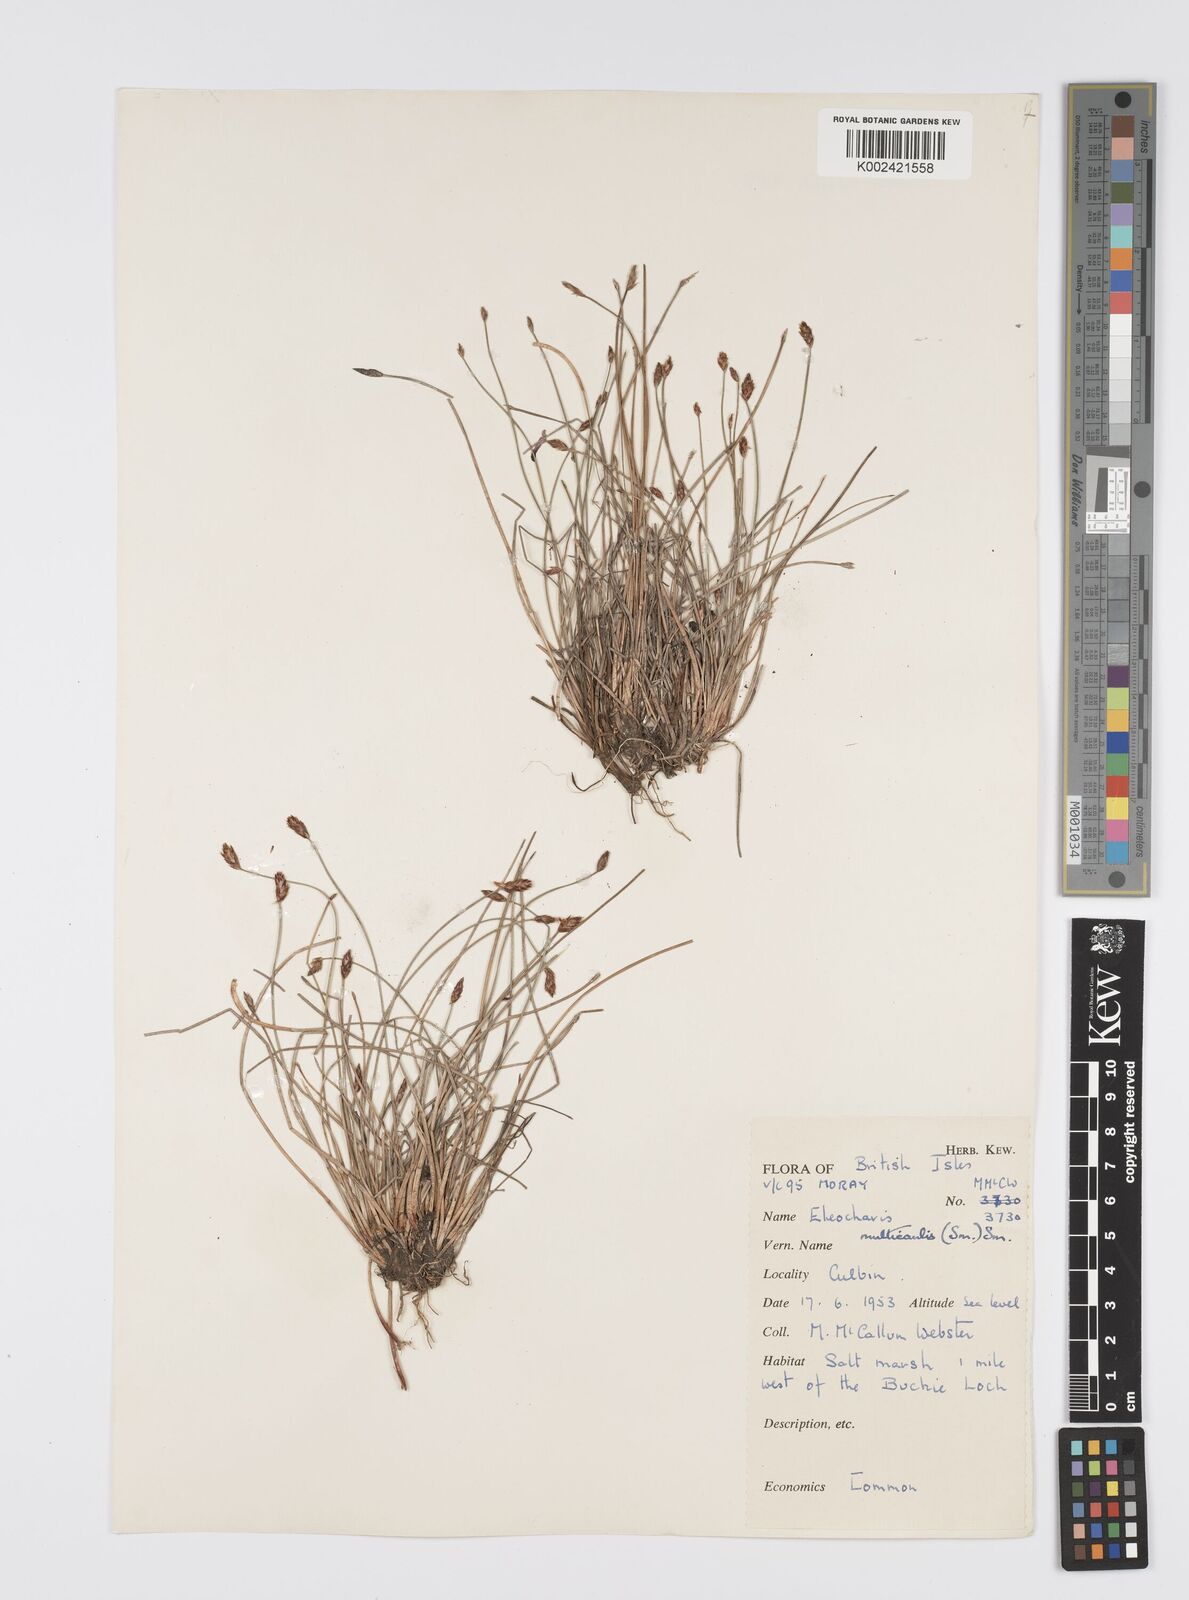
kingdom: Plantae
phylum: Tracheophyta
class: Liliopsida
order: Poales
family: Cyperaceae
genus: Eleocharis
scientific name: Eleocharis multicaulis
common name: Many-stalked spike-rush
